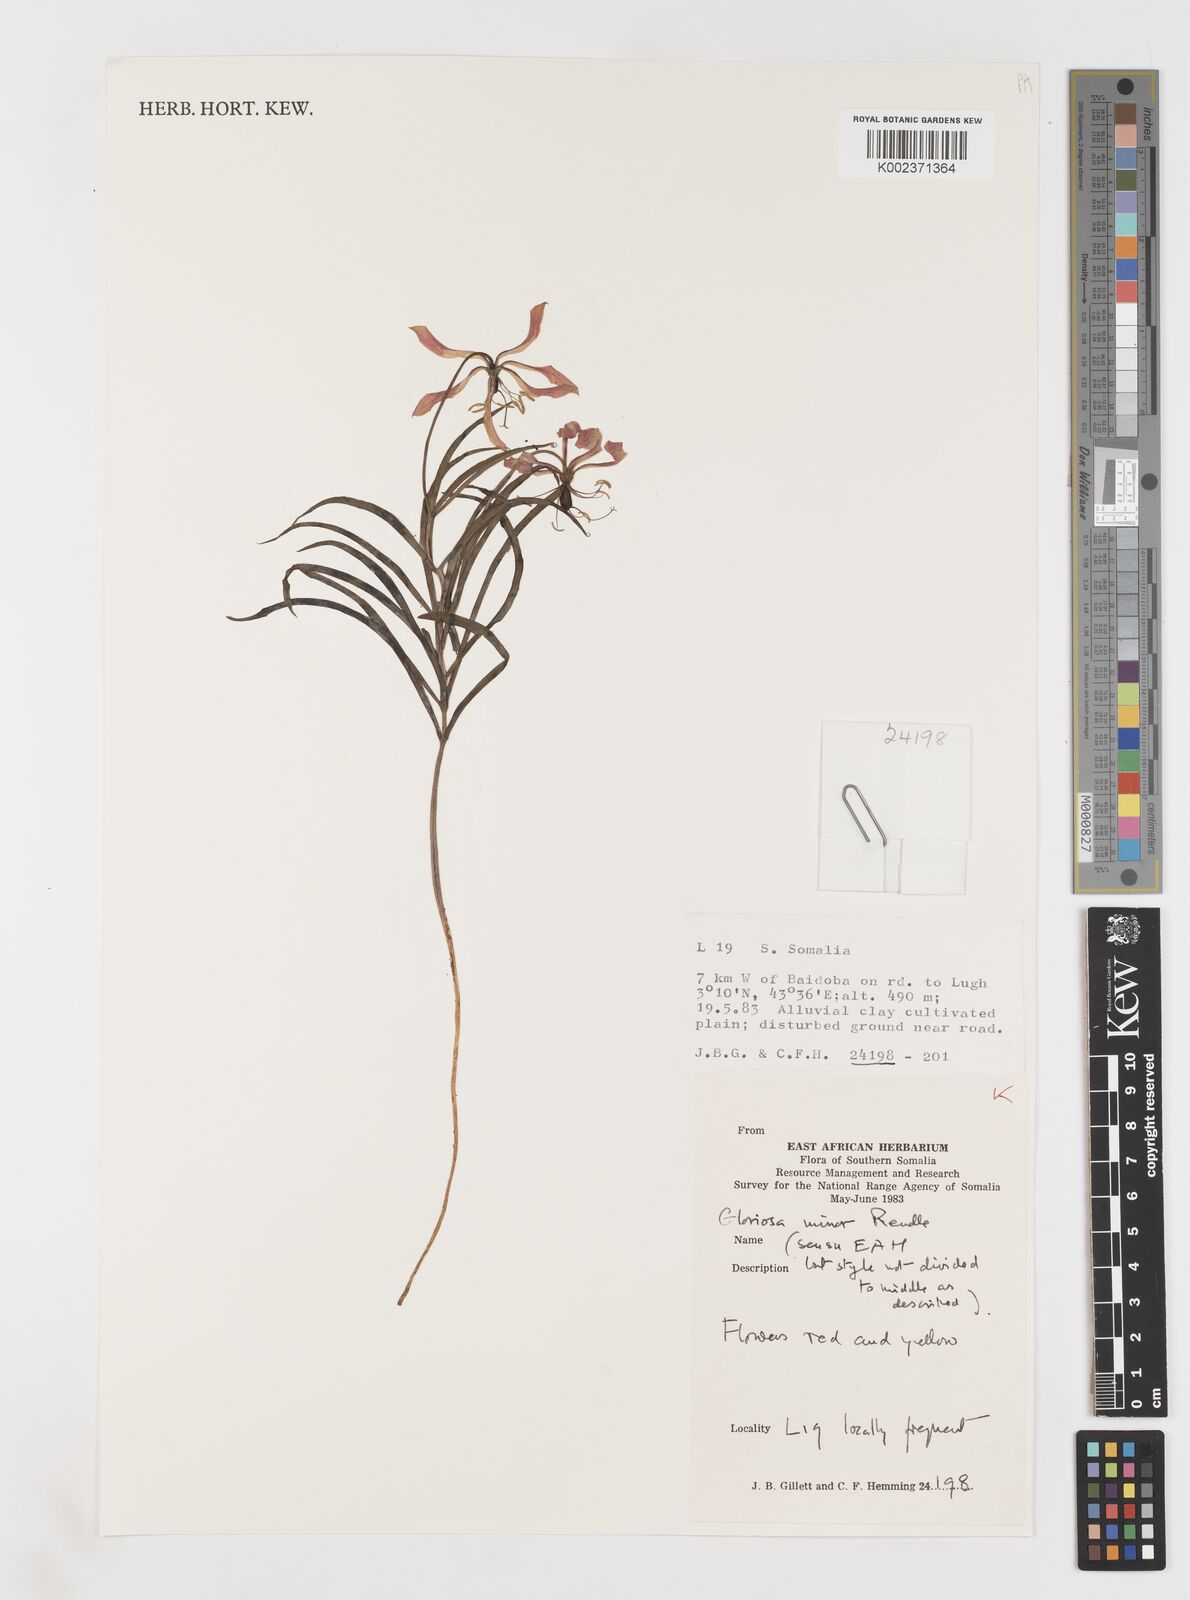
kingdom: Plantae
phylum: Tracheophyta
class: Liliopsida
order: Liliales
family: Colchicaceae
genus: Gloriosa
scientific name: Gloriosa baudii
